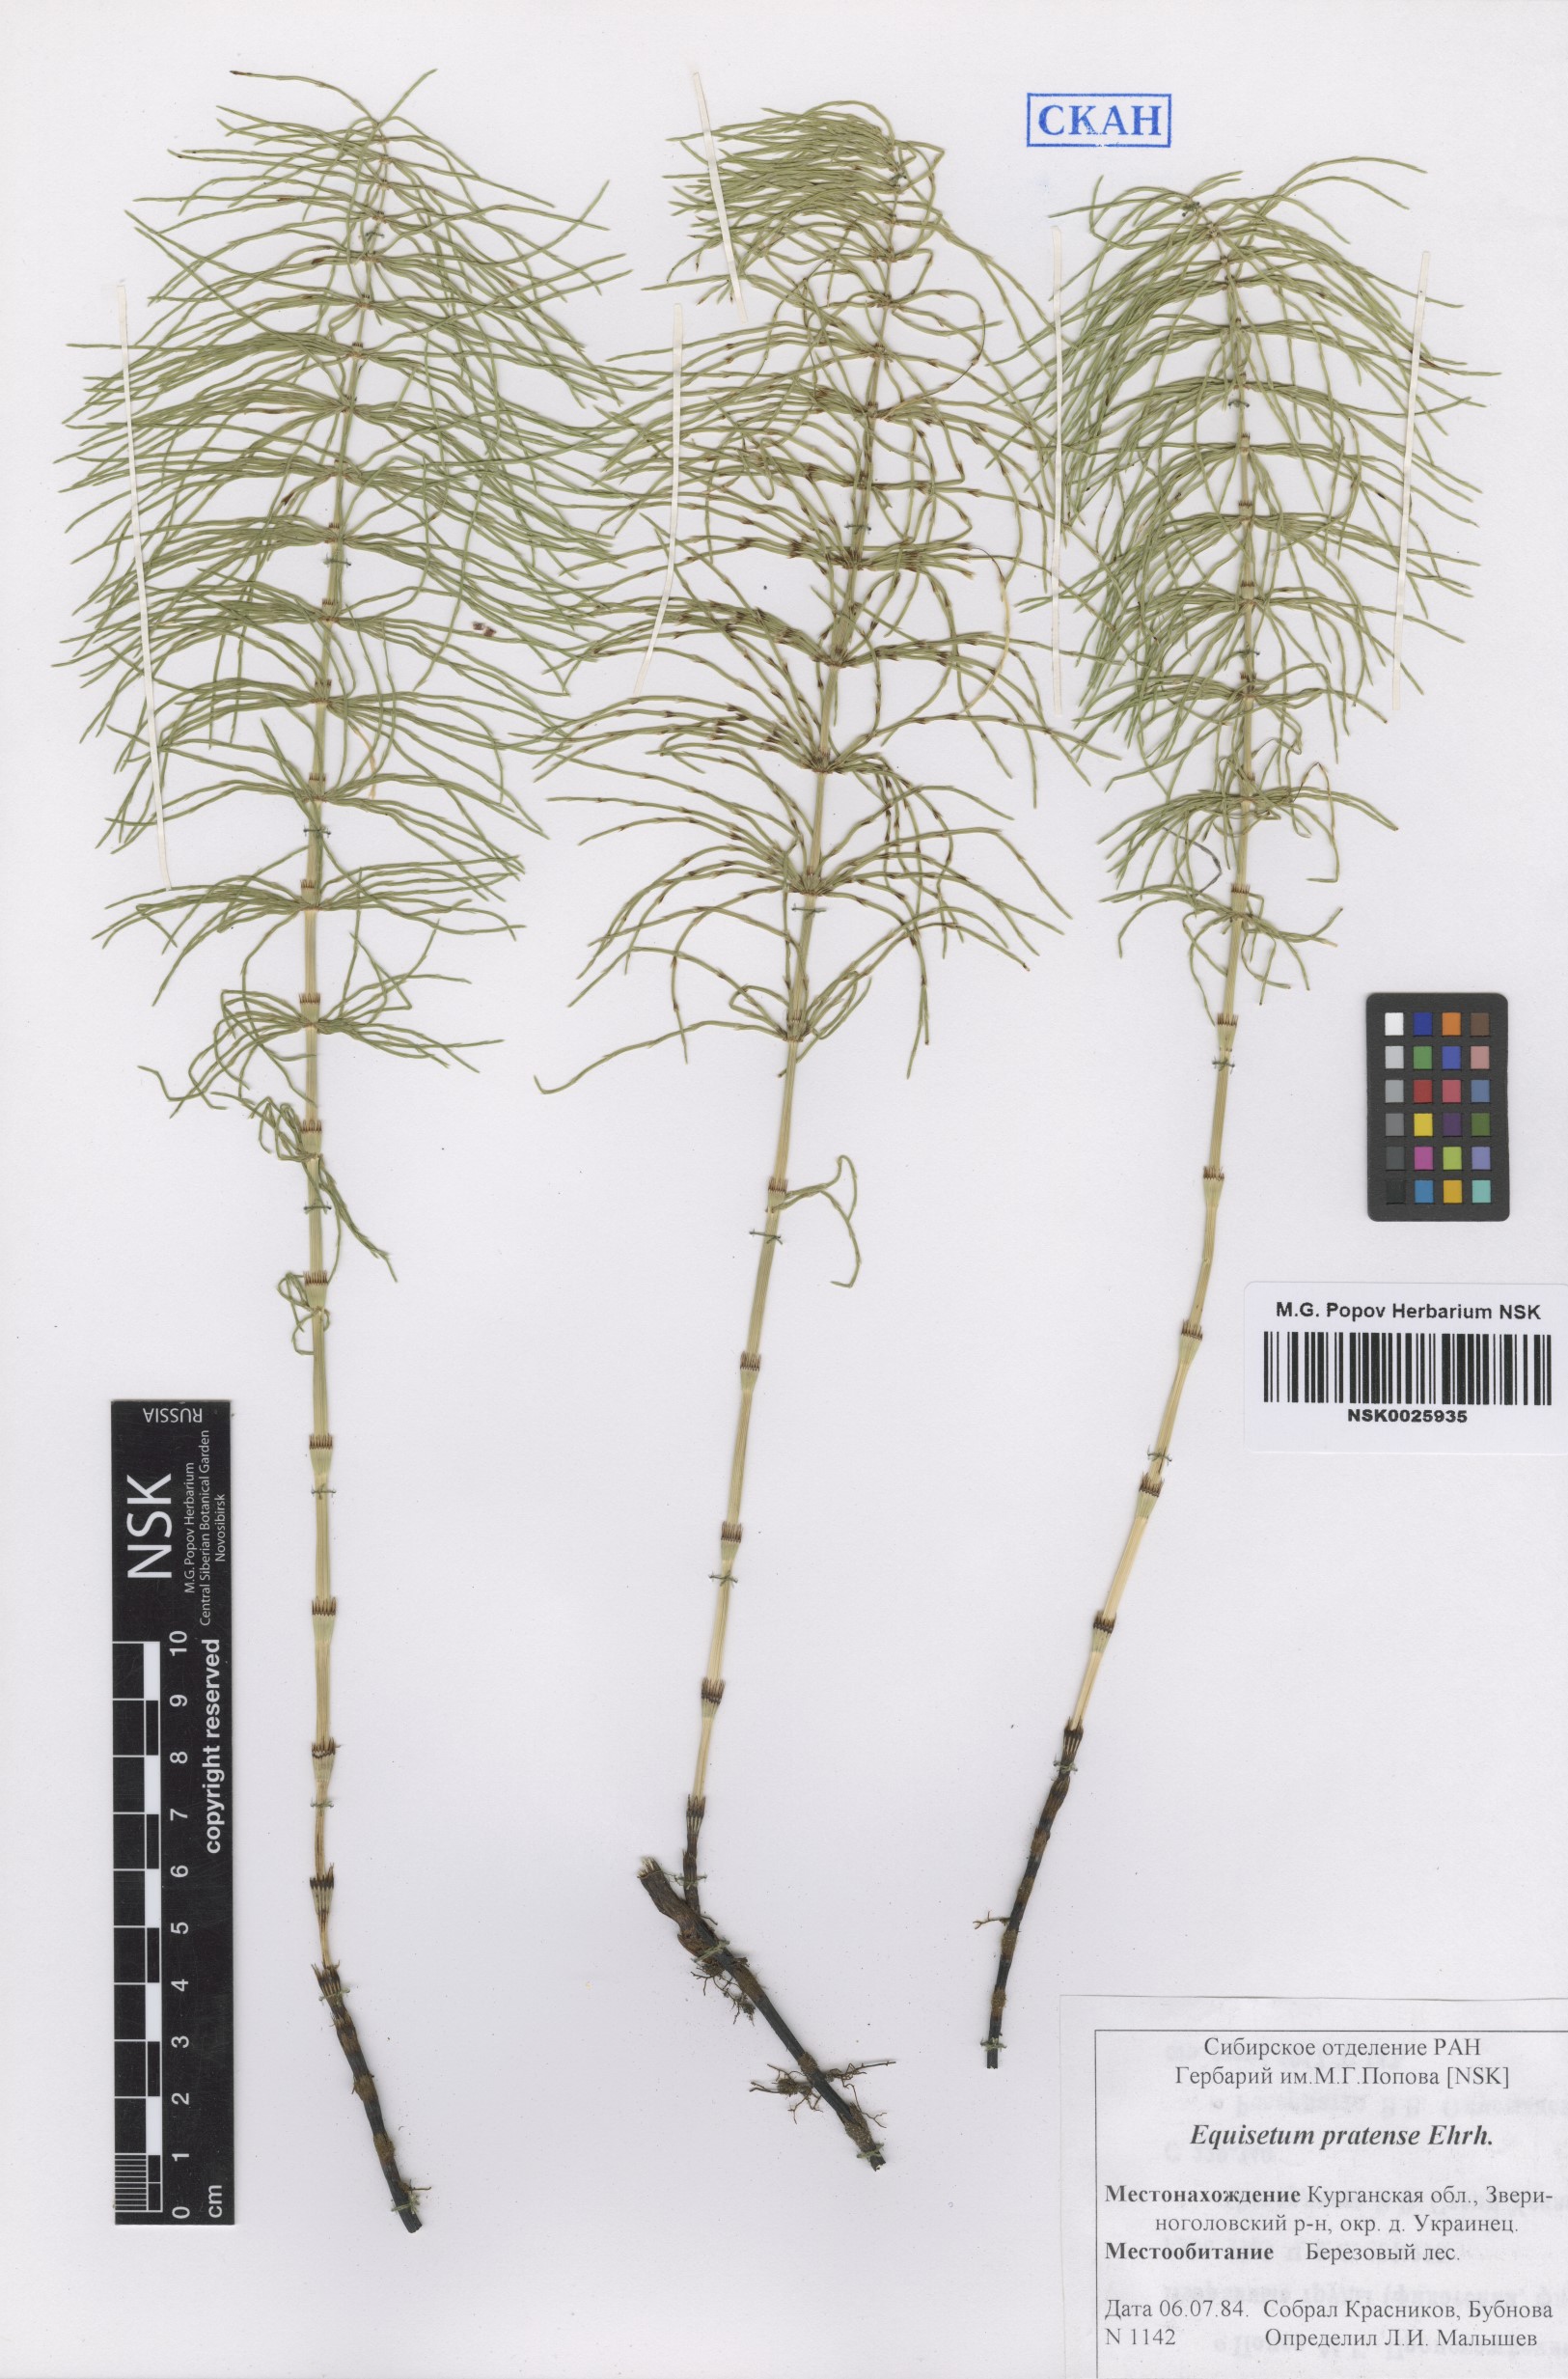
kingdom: Plantae
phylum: Tracheophyta
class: Polypodiopsida
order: Equisetales
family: Equisetaceae
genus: Equisetum
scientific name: Equisetum pratense
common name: Meadow horsetail
